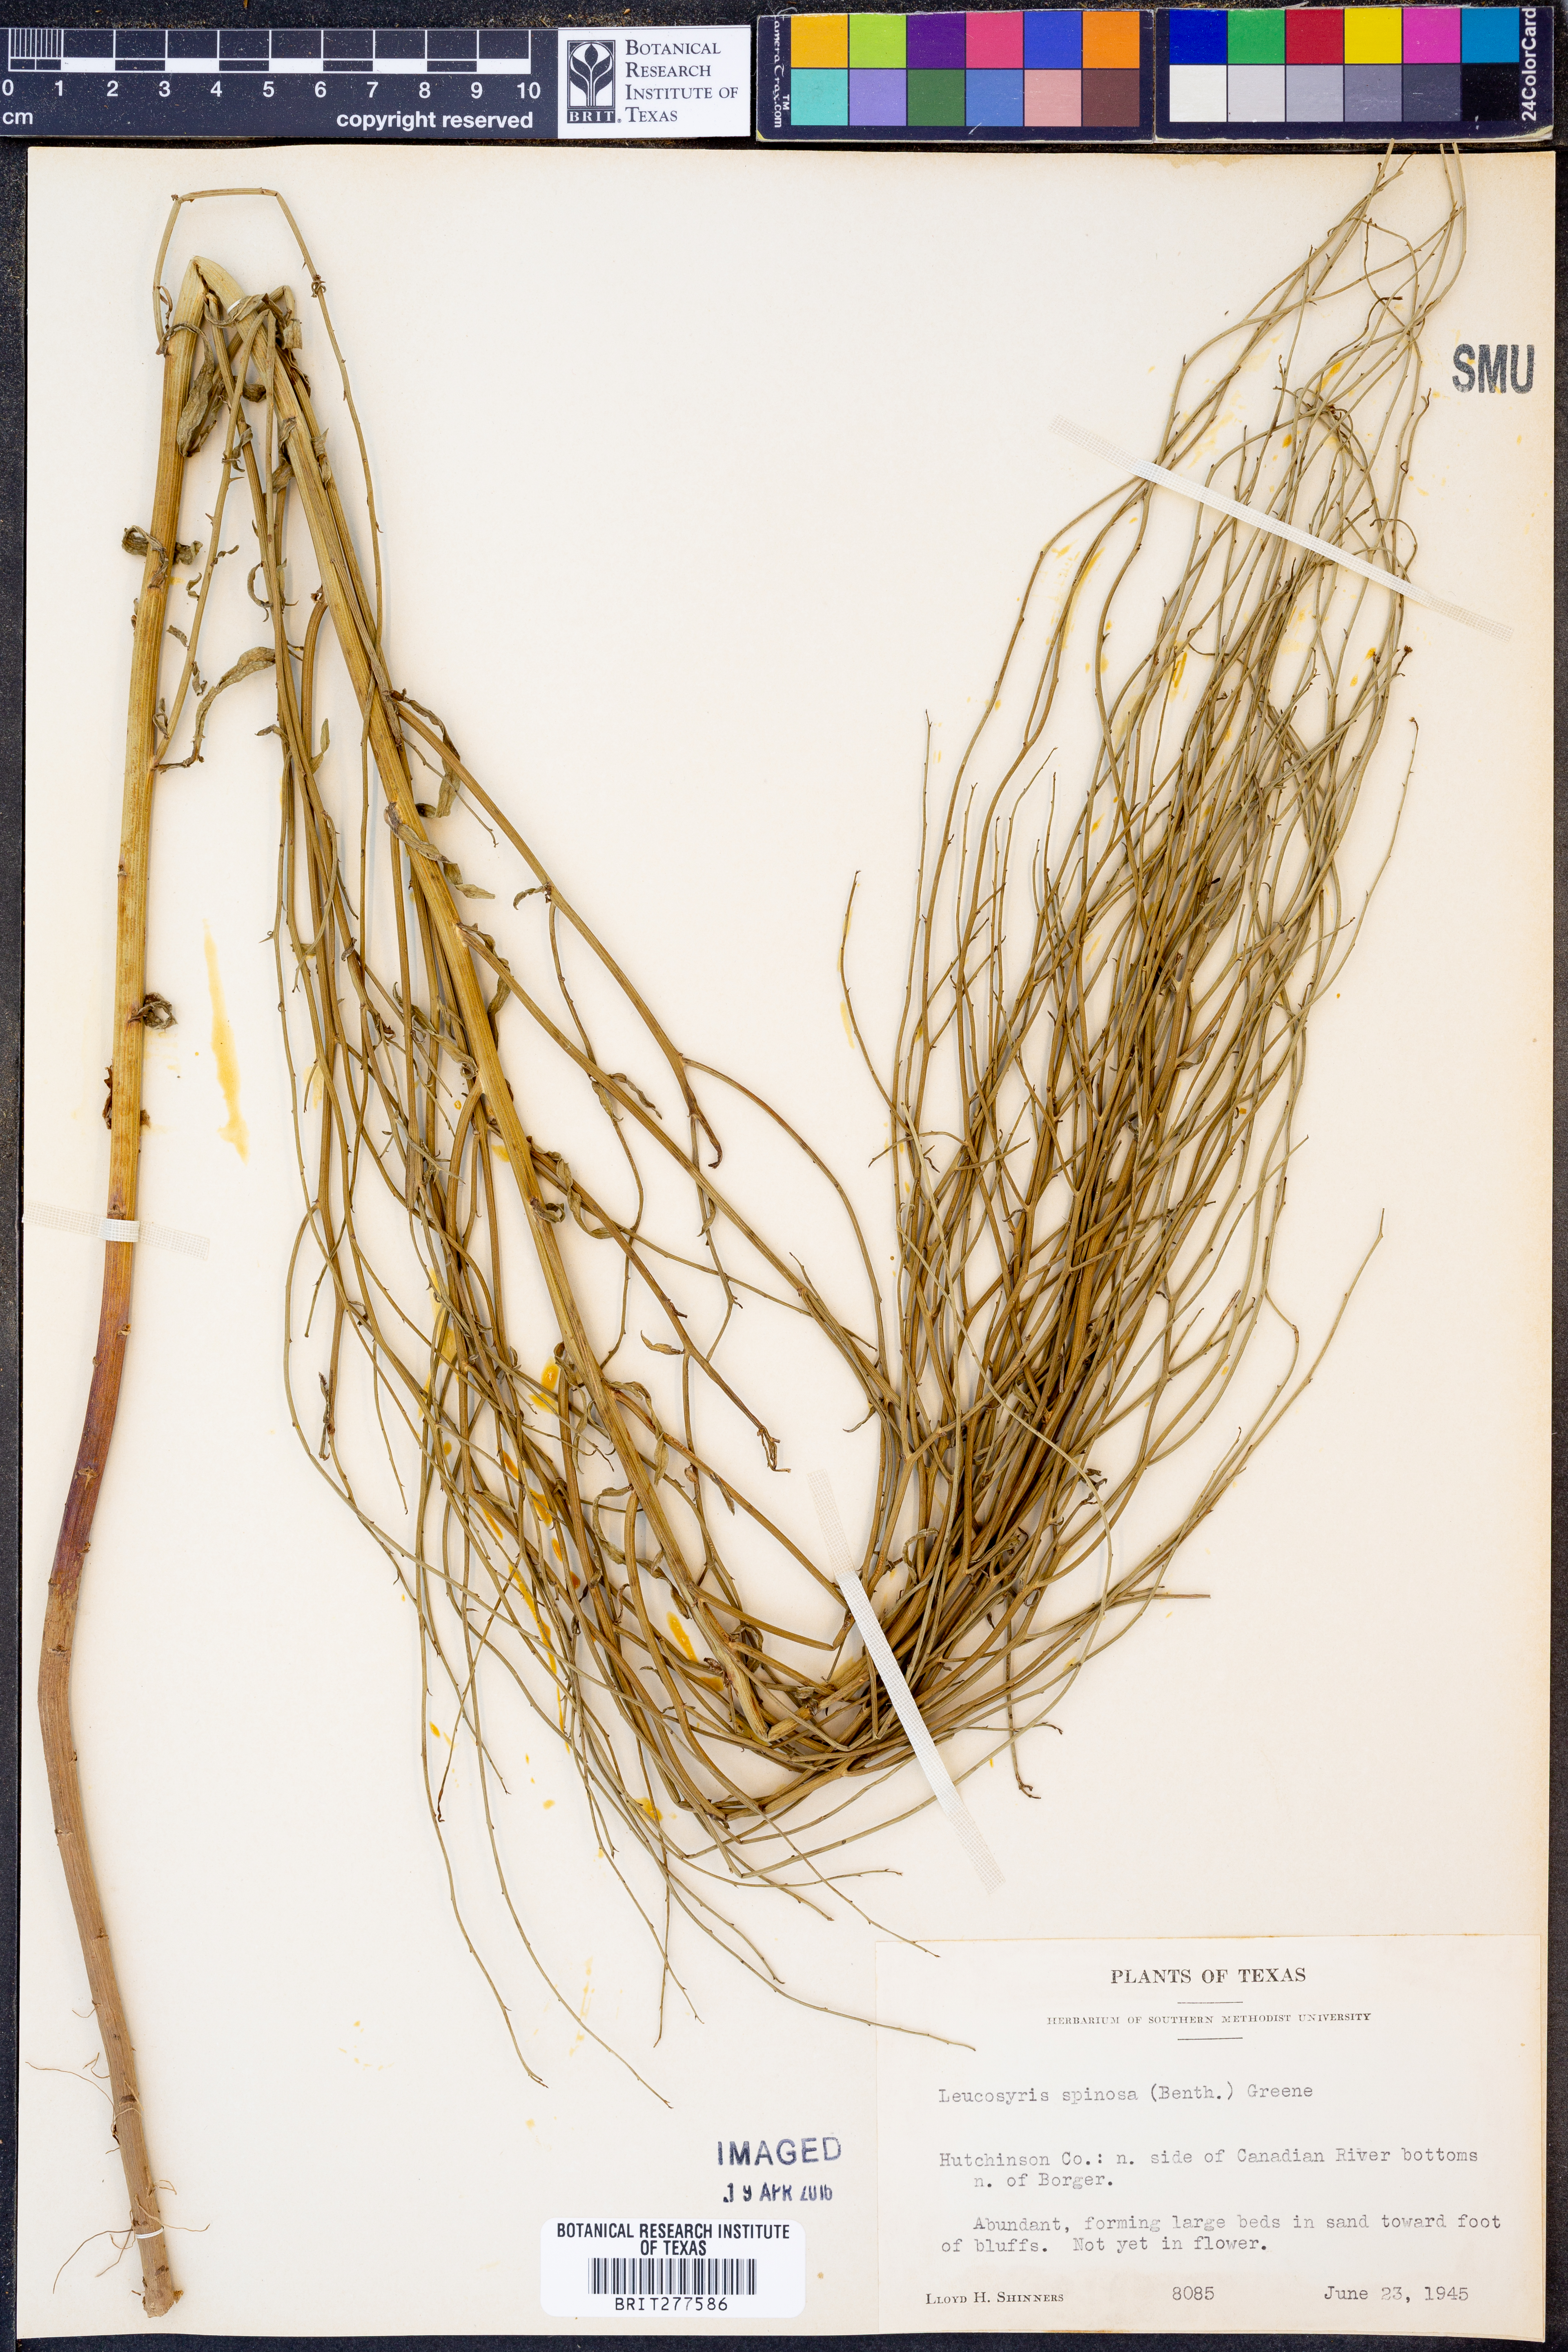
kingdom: Plantae
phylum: Tracheophyta
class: Magnoliopsida
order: Asterales
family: Asteraceae
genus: Chloracantha
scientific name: Chloracantha spinosa
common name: Mexican devilweed
